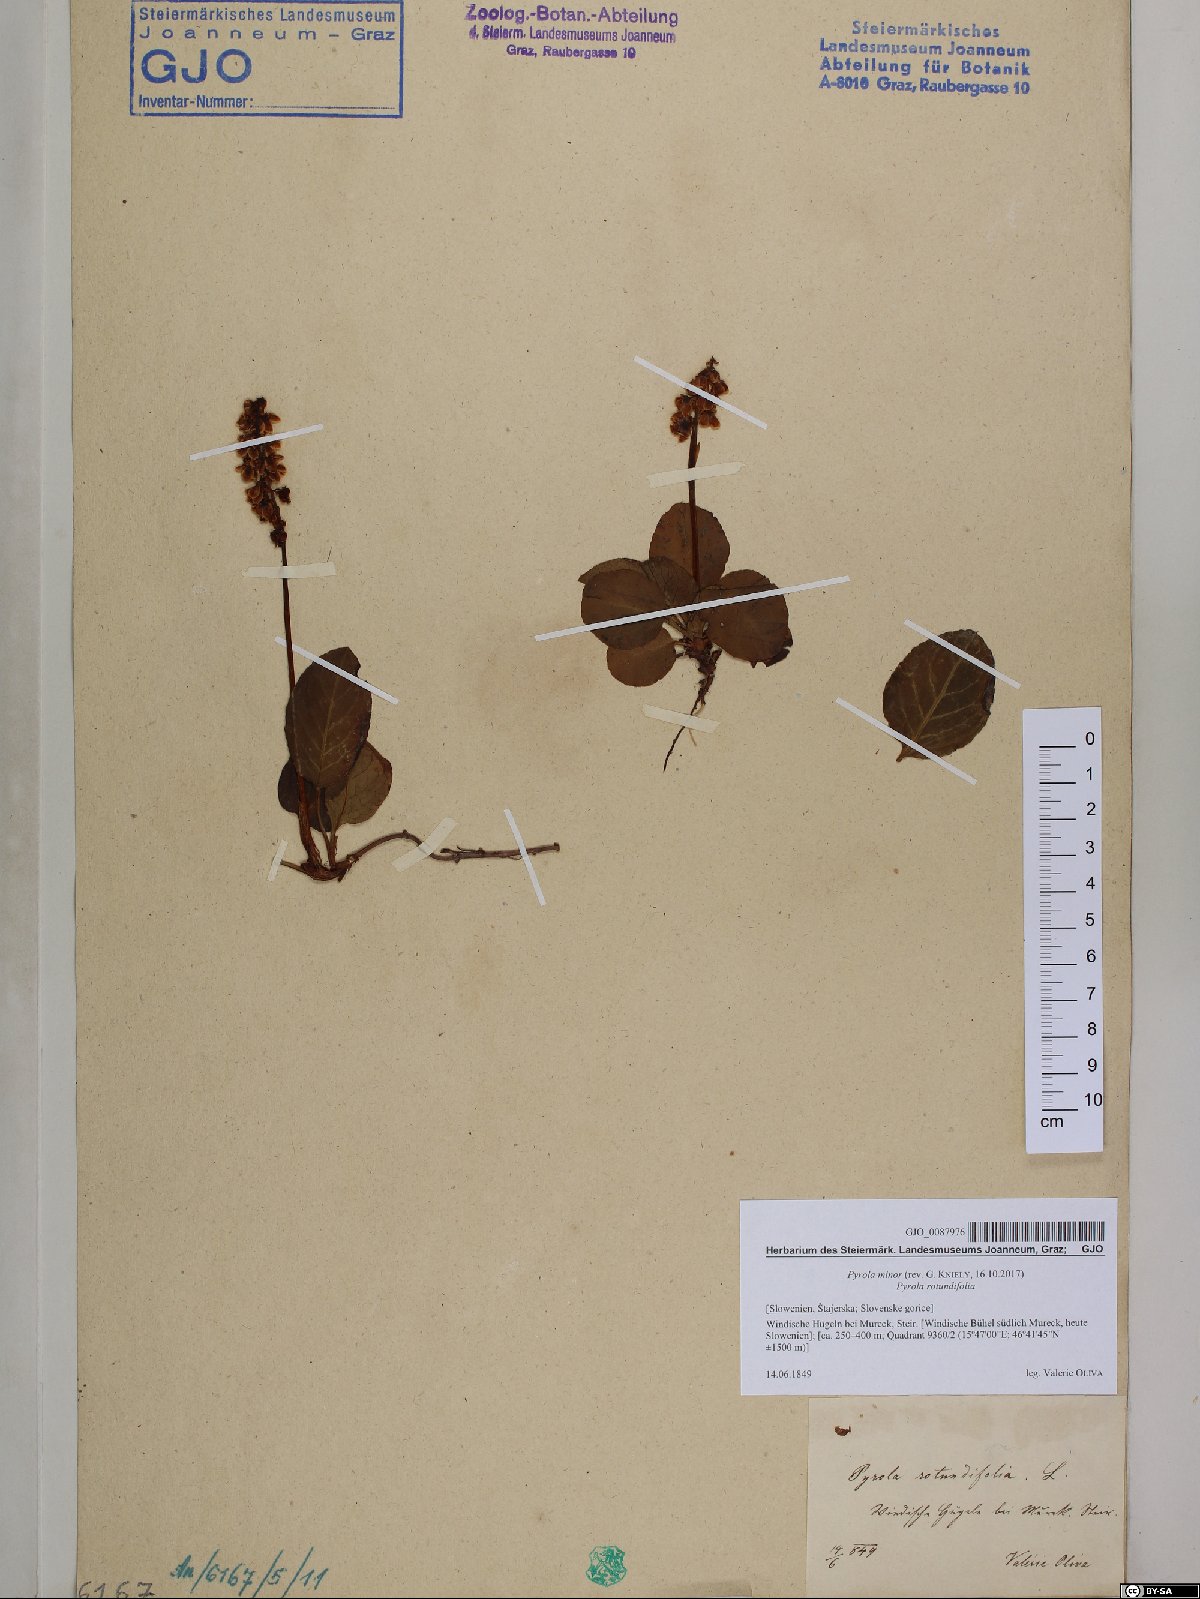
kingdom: Plantae
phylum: Tracheophyta
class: Magnoliopsida
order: Ericales
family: Ericaceae
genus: Pyrola
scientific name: Pyrola minor
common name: Common wintergreen
